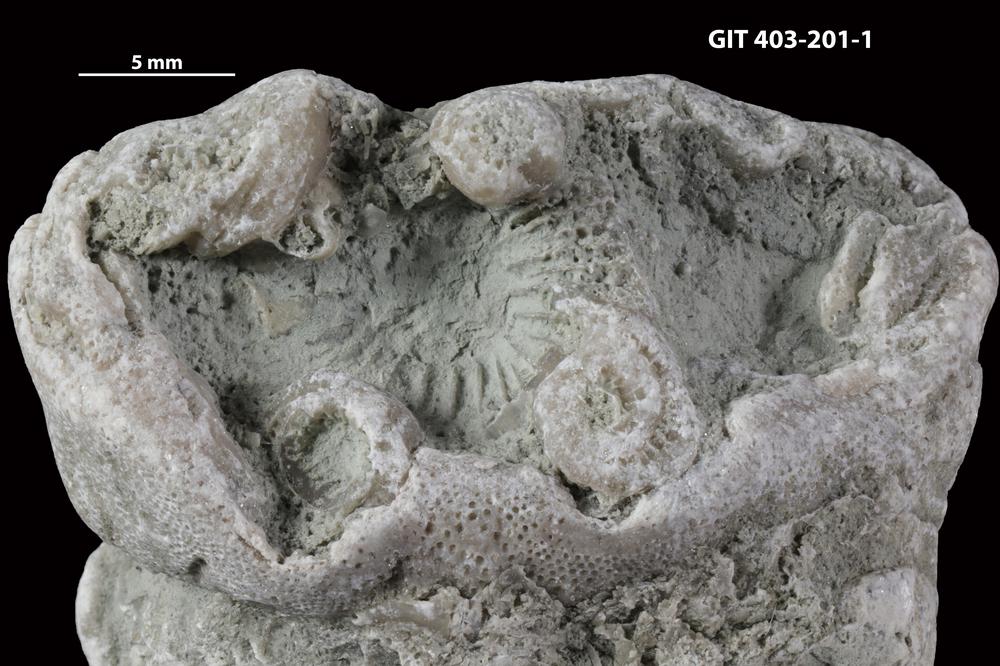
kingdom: Animalia
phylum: Cnidaria
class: Anthozoa
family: Entelophyllidae
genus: Entelophyllum
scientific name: Entelophyllum
